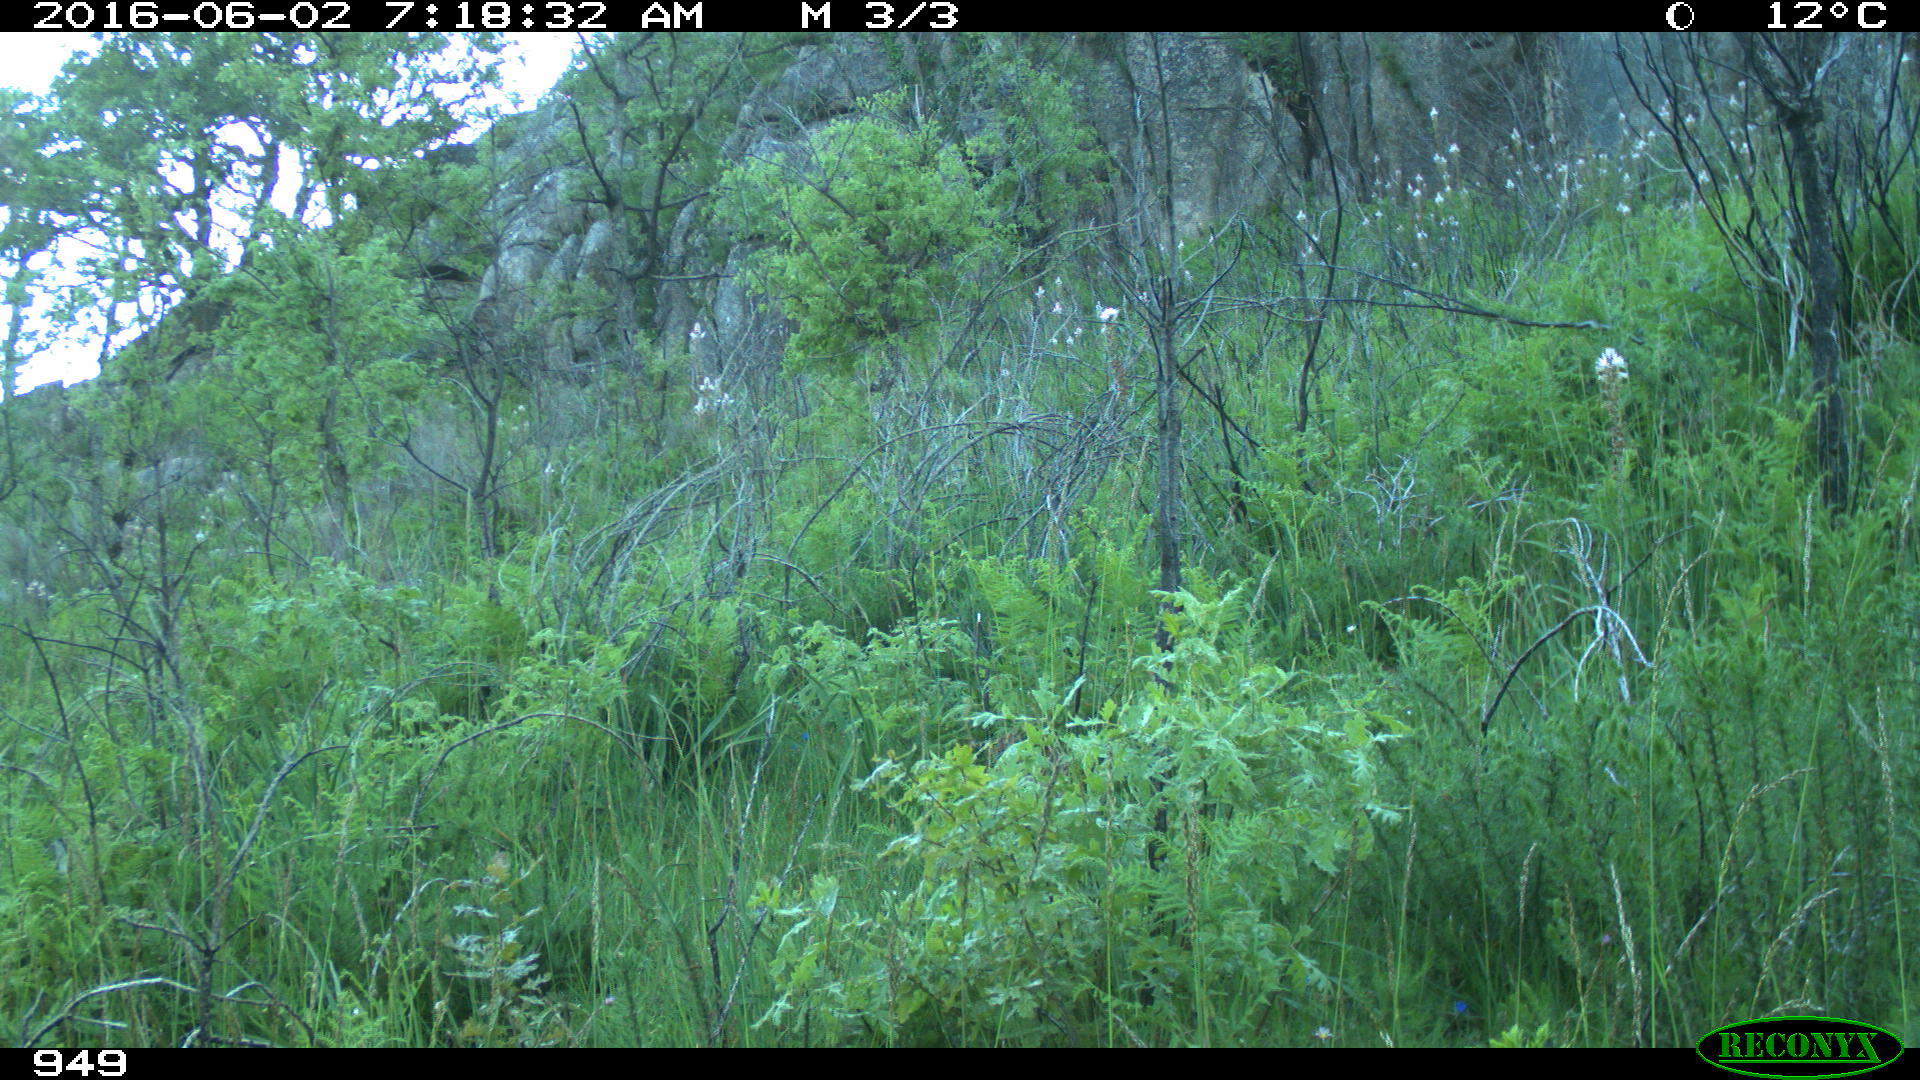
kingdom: Animalia
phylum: Chordata
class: Mammalia
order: Artiodactyla
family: Cervidae
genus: Capreolus
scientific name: Capreolus capreolus
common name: Western roe deer
